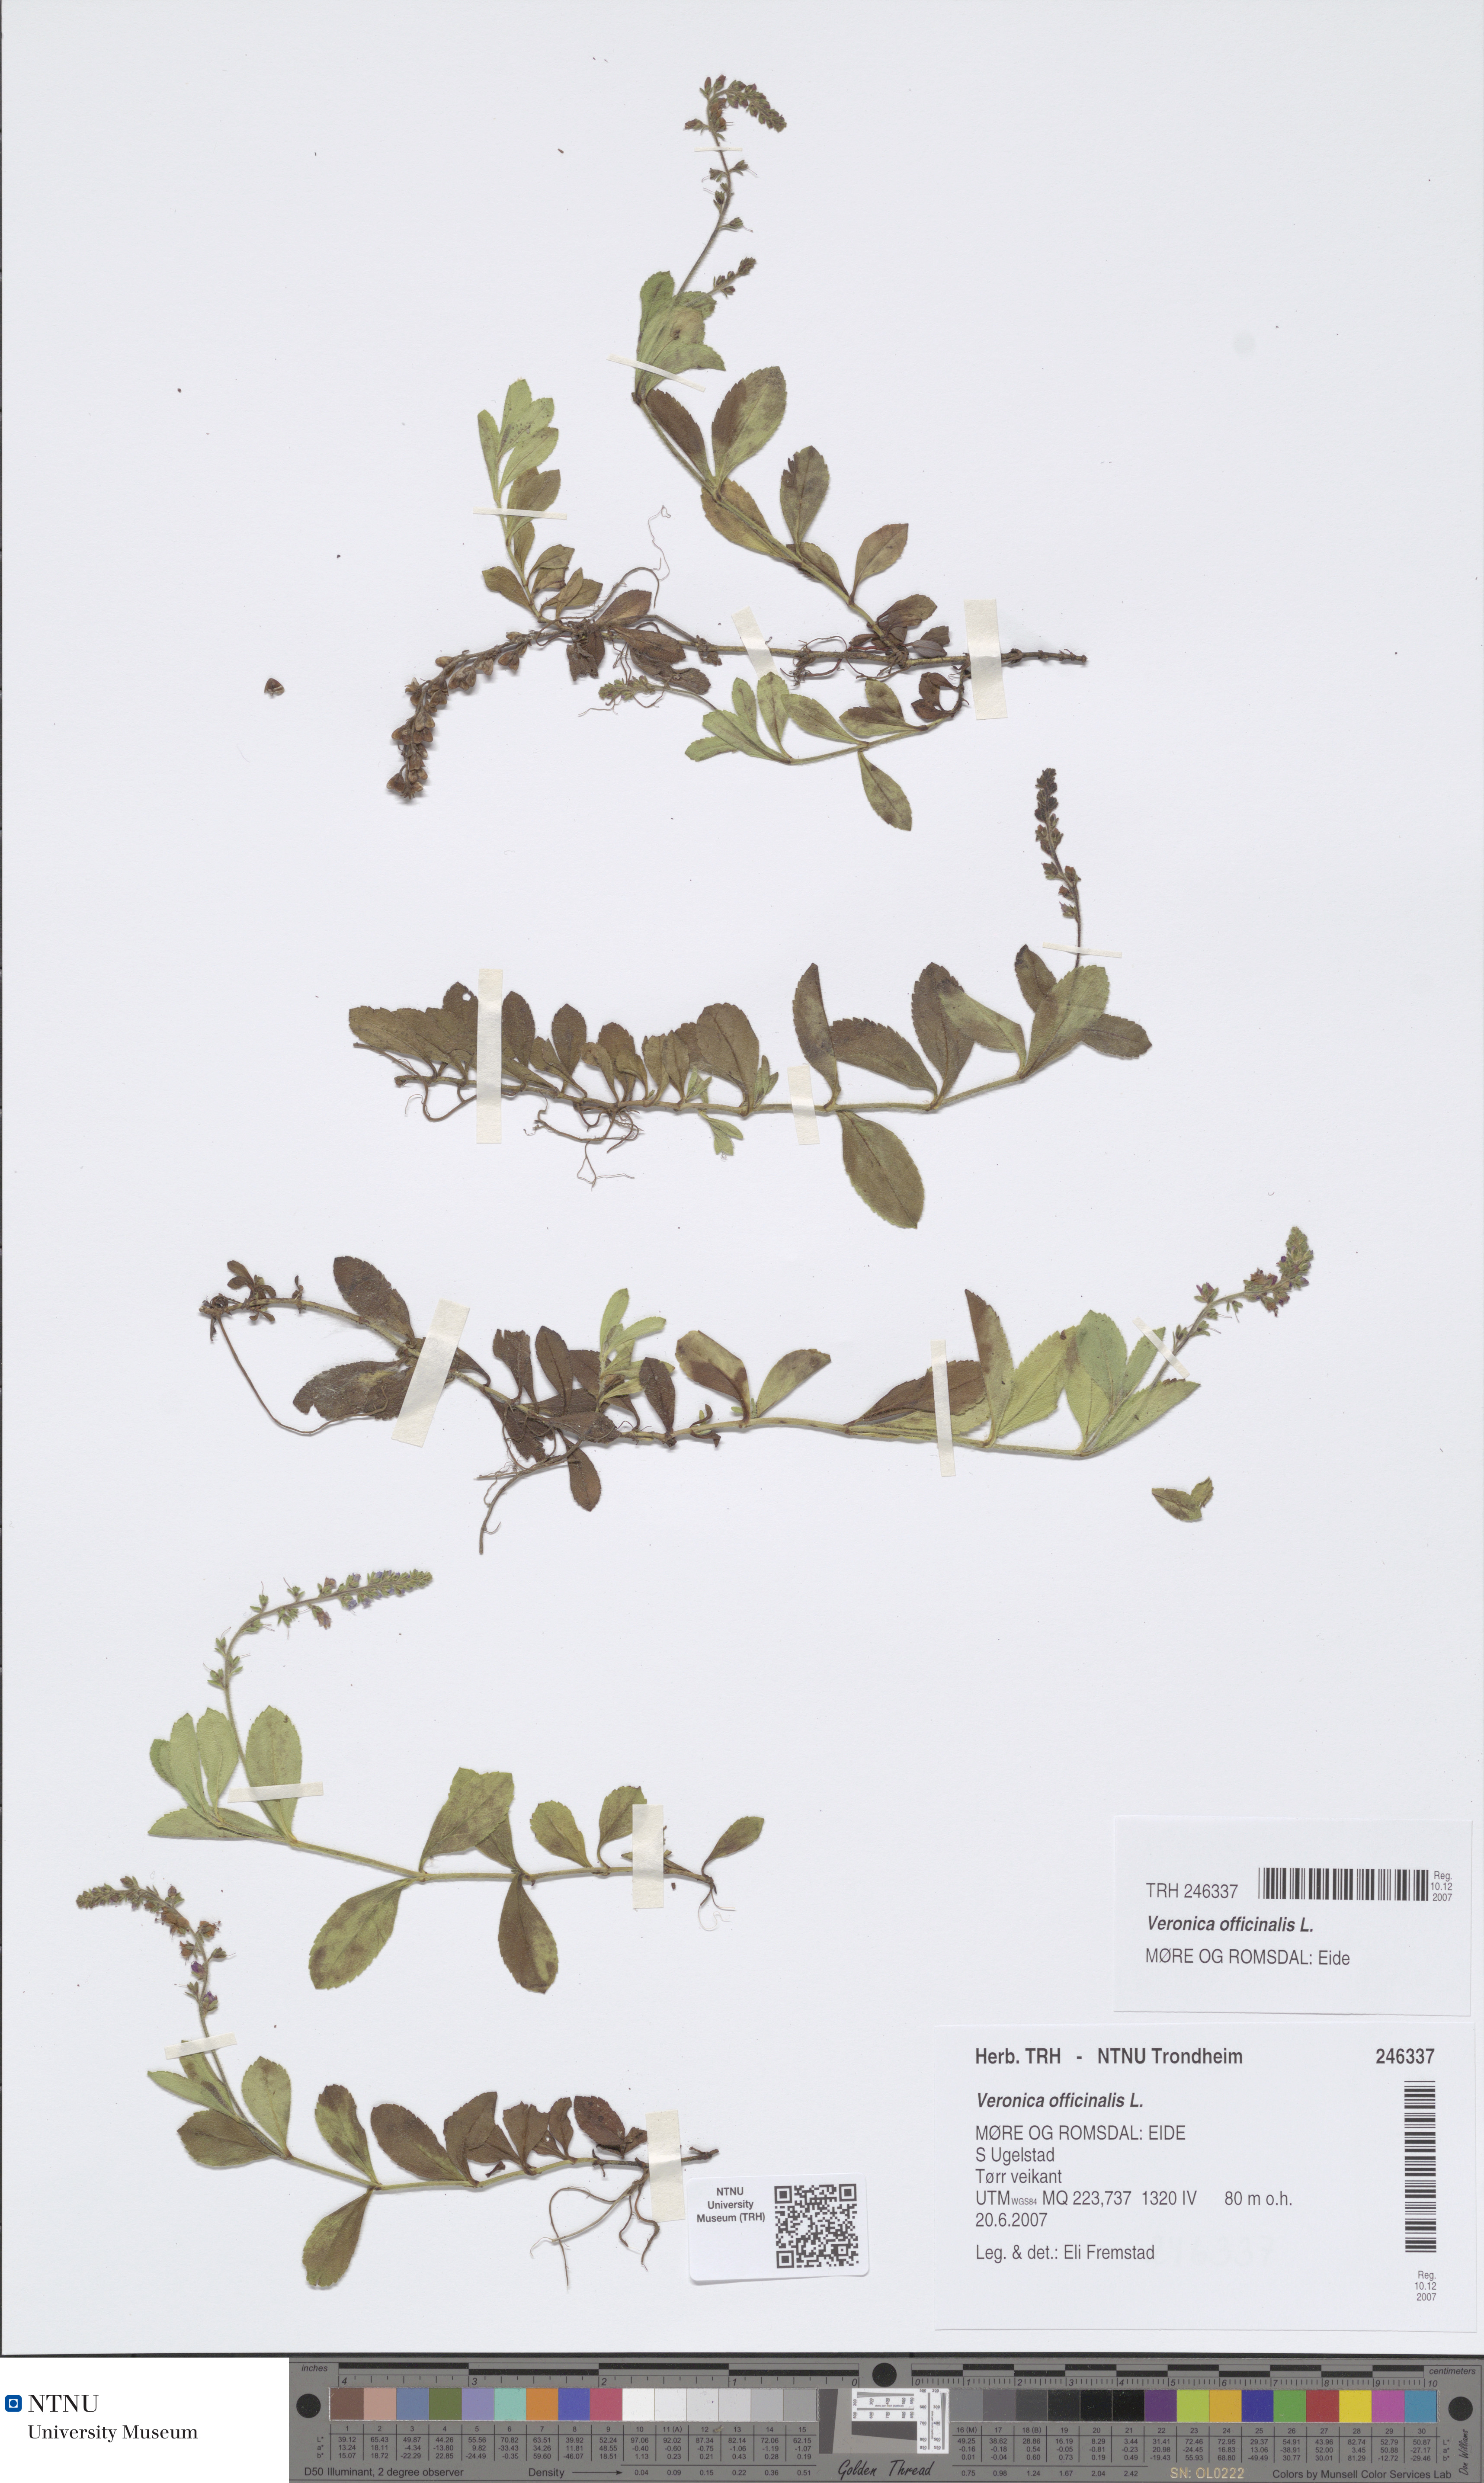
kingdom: Plantae
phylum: Tracheophyta
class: Magnoliopsida
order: Lamiales
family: Plantaginaceae
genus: Veronica
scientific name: Veronica officinalis
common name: Common speedwell
